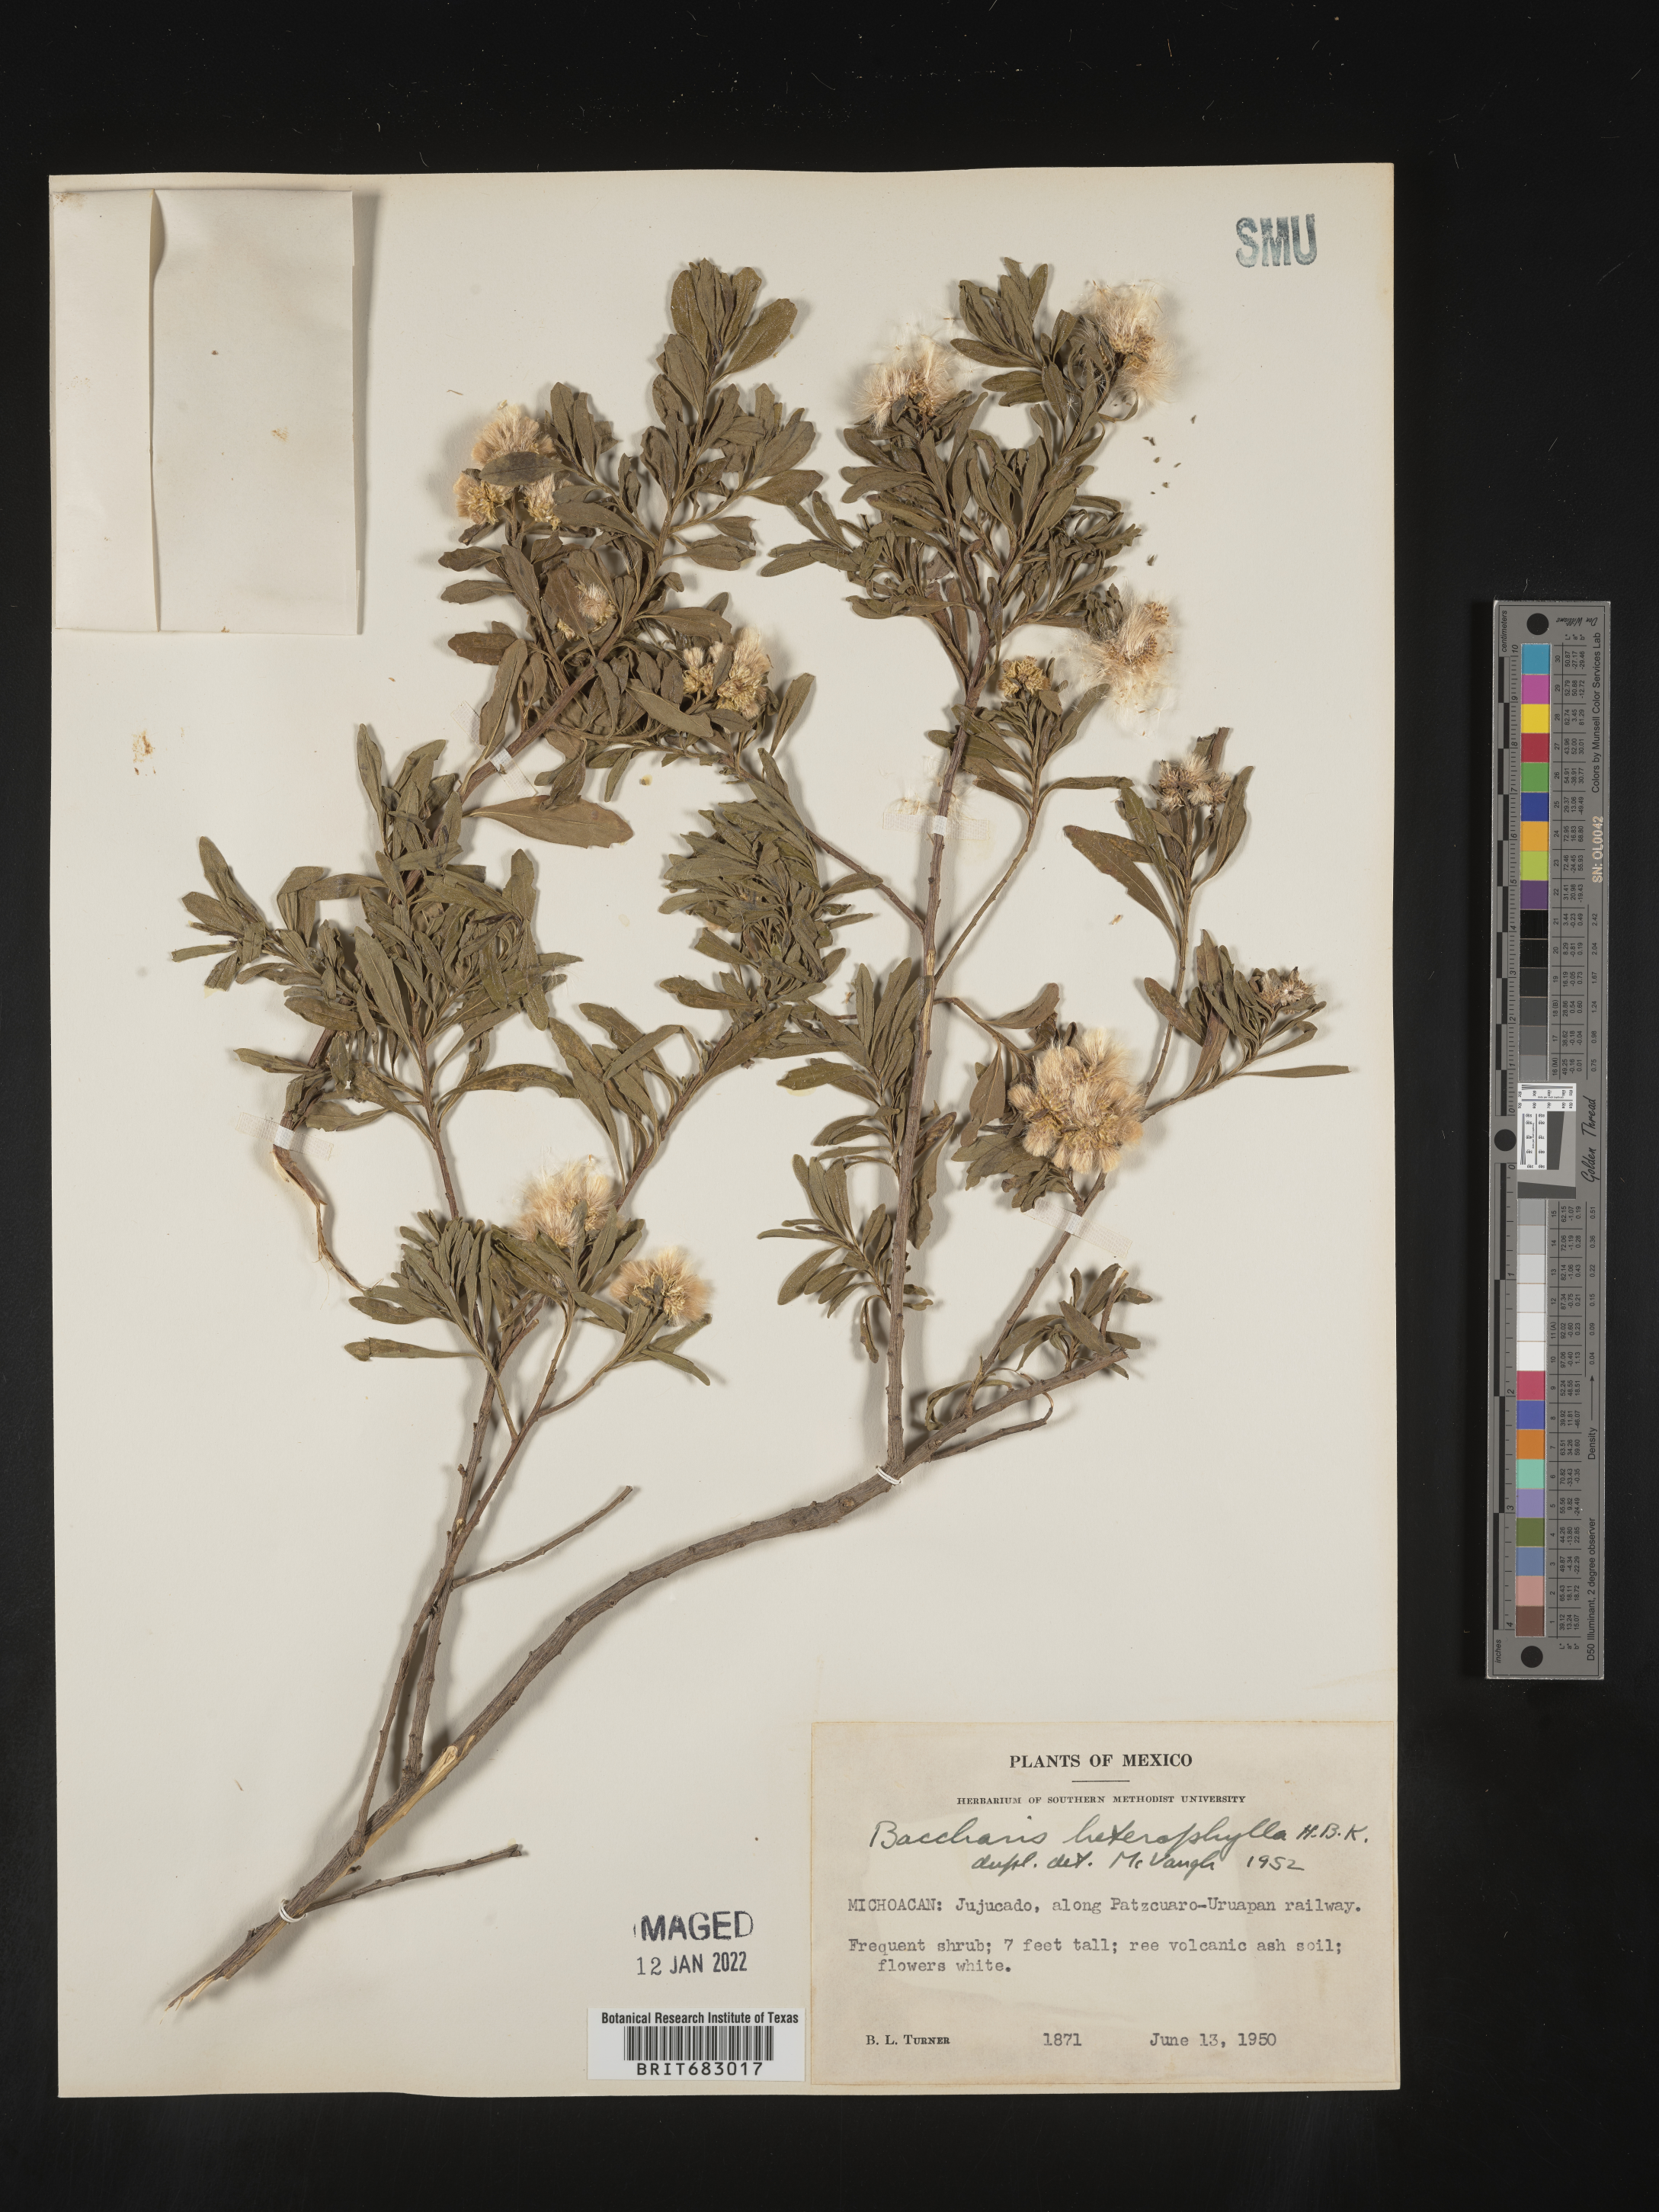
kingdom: Plantae
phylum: Tracheophyta
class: Magnoliopsida
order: Asterales
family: Asteraceae
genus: Baccharis
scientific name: Baccharis microdonta
